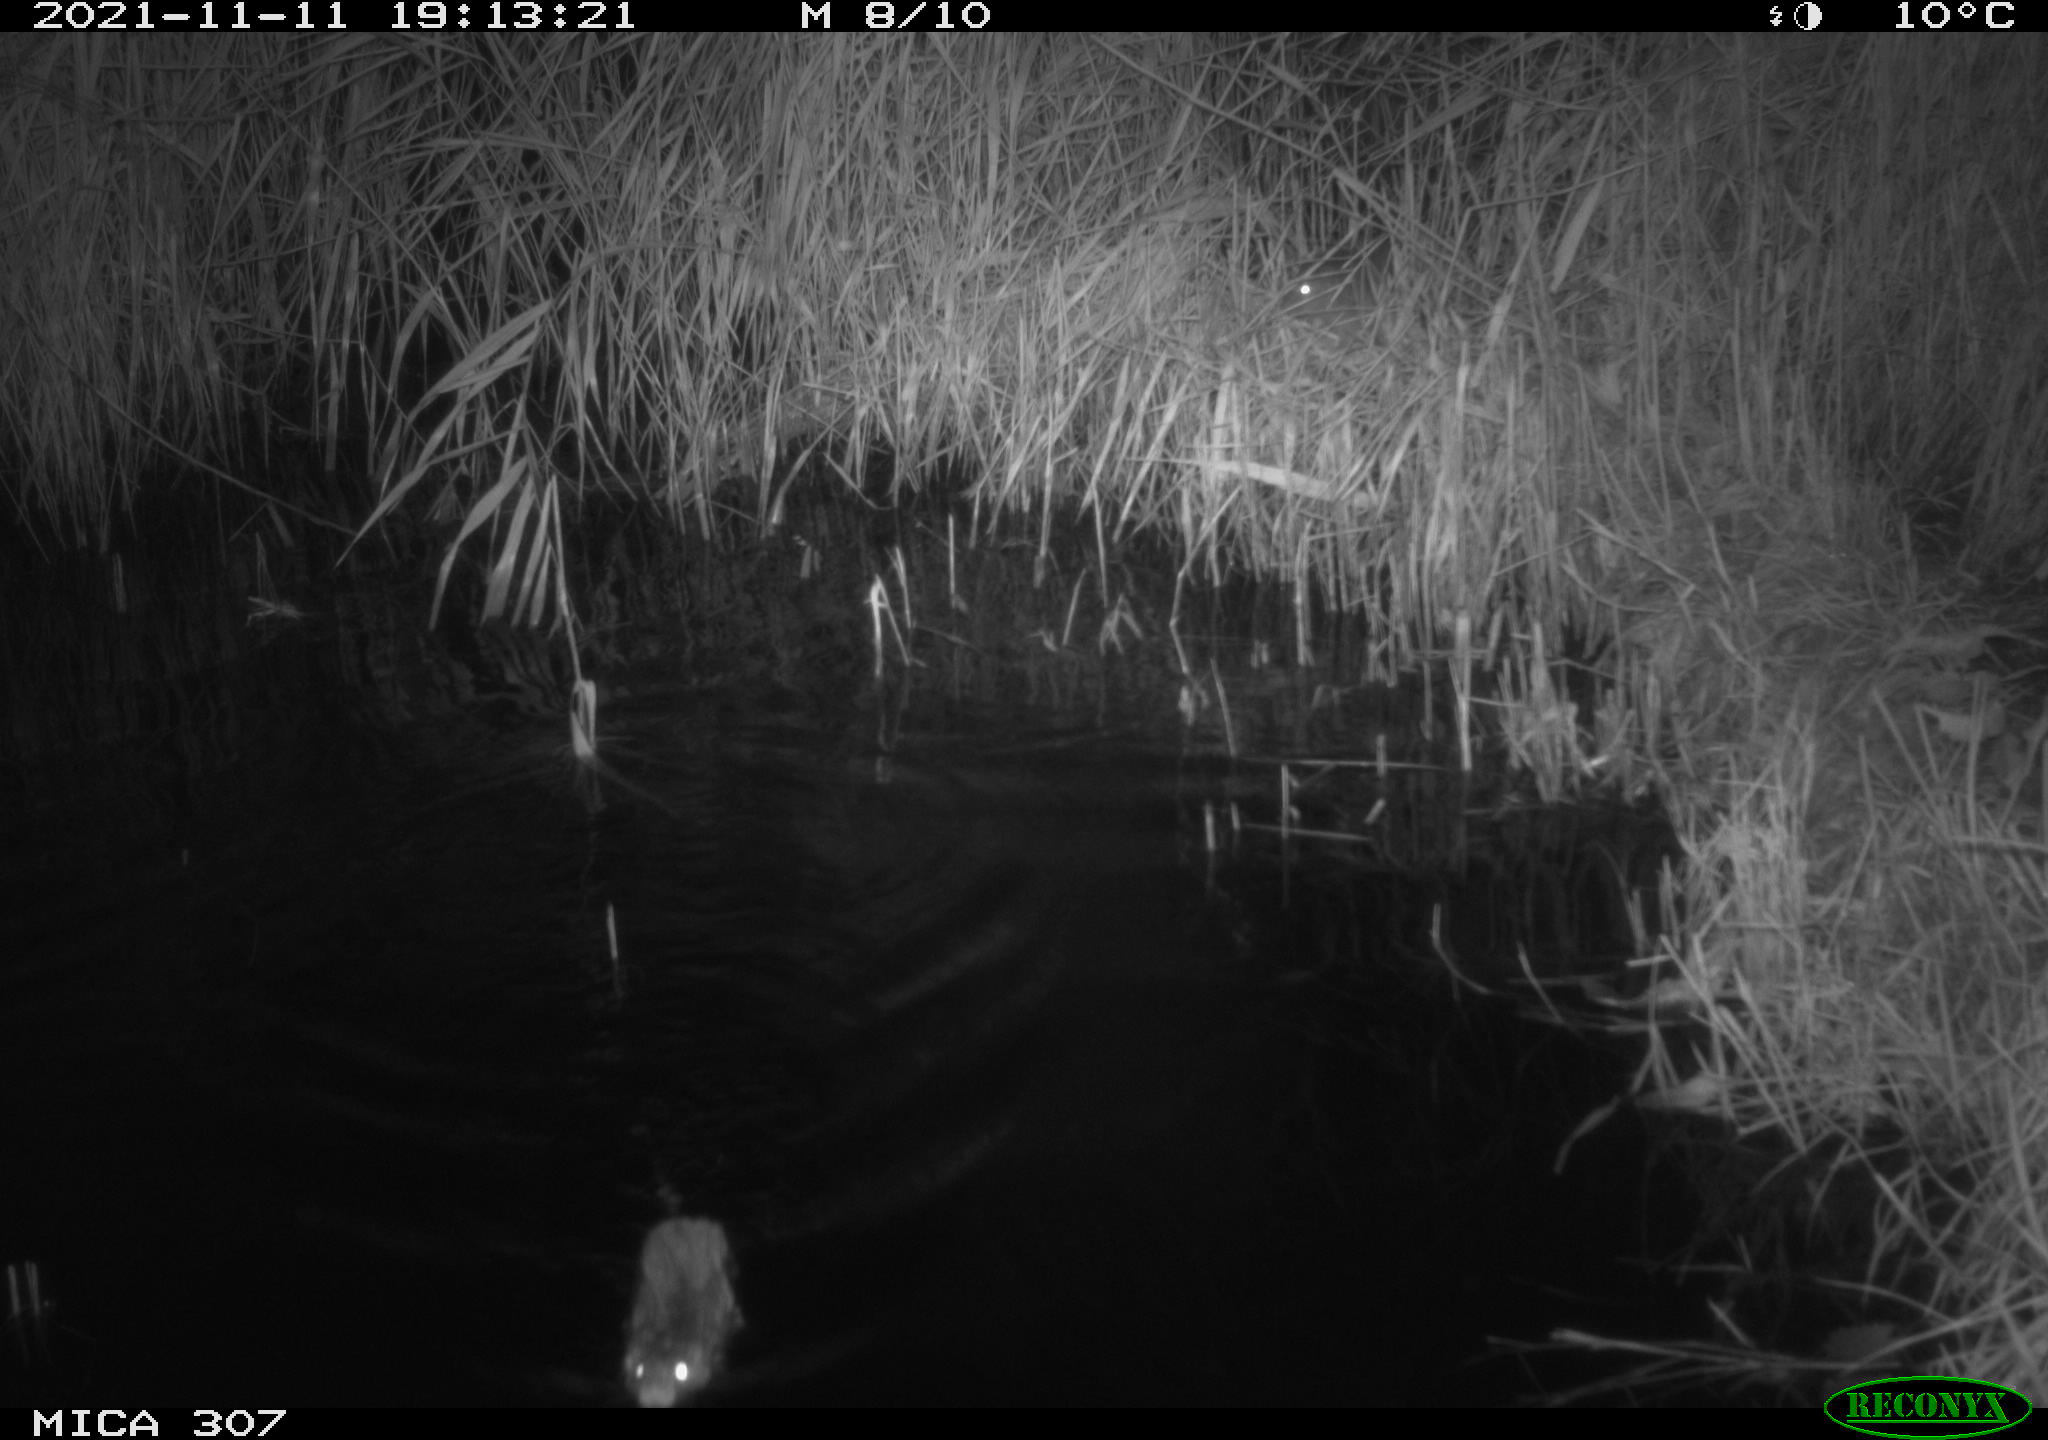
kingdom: Animalia
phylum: Chordata
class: Mammalia
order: Rodentia
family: Muridae
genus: Rattus
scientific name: Rattus norvegicus
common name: Brown rat
